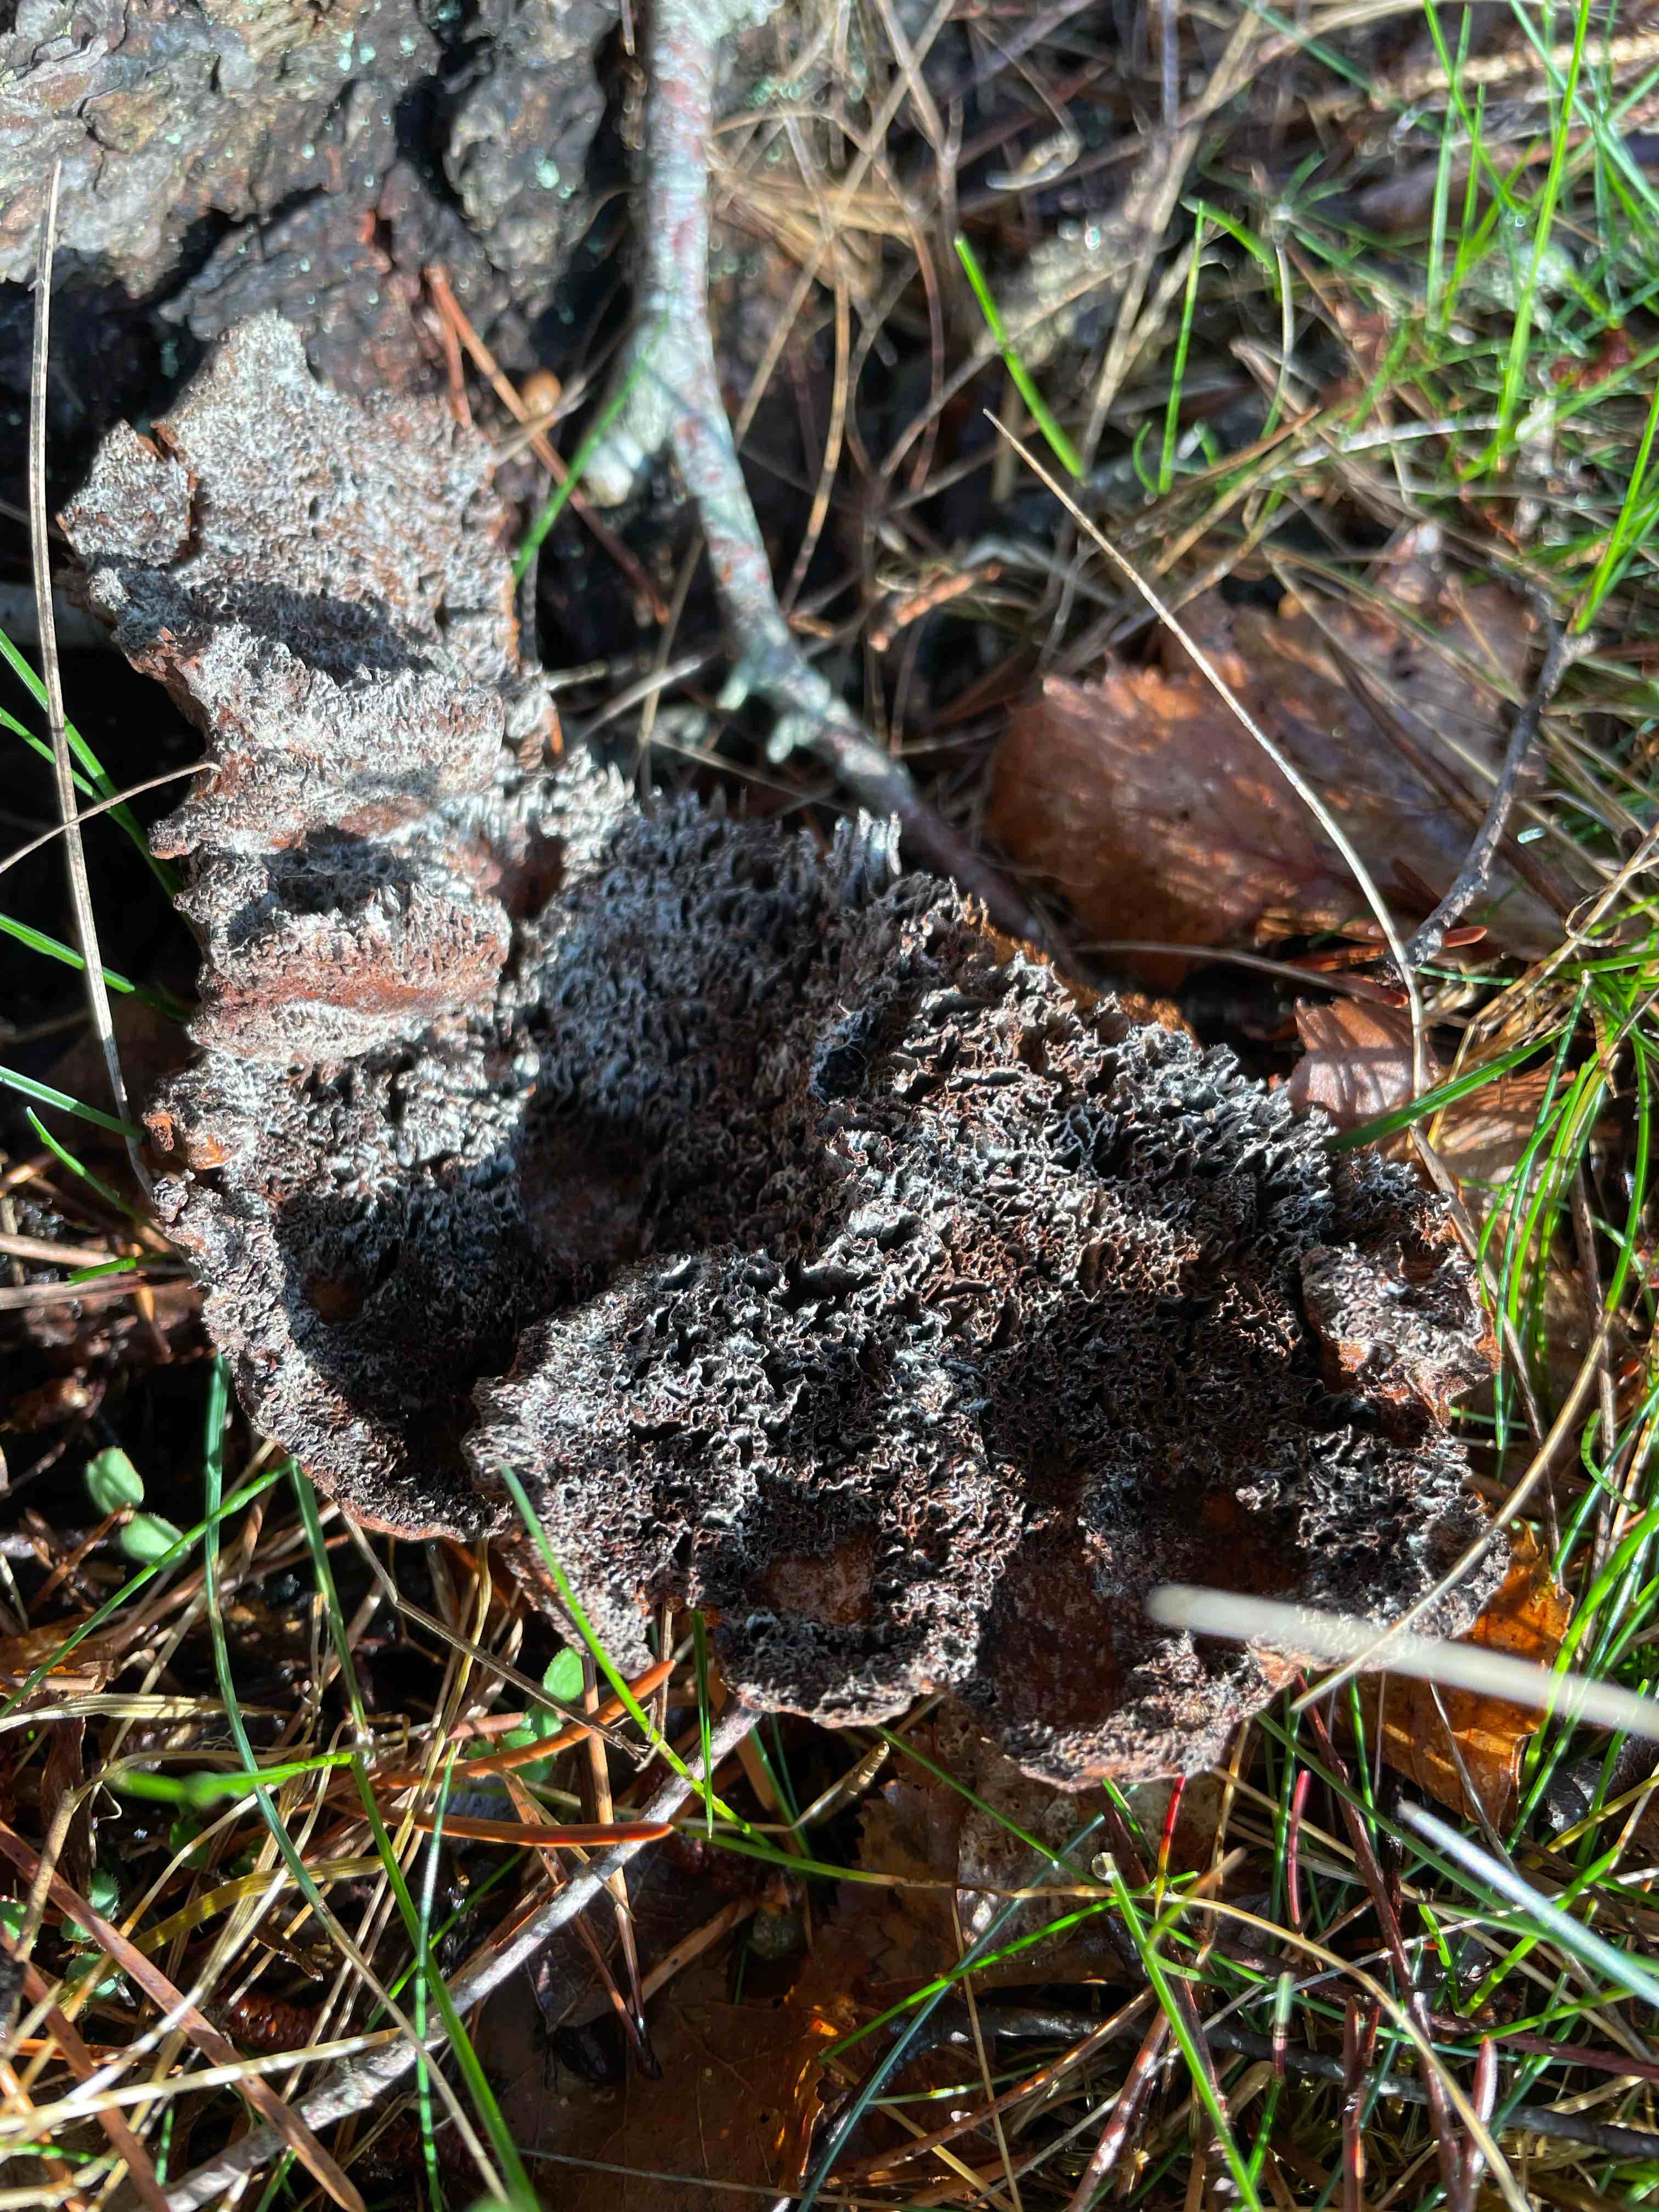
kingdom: Fungi
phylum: Basidiomycota
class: Agaricomycetes
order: Polyporales
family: Ischnodermataceae
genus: Ischnoderma
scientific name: Ischnoderma benzoinum
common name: gran-tjæreporesvamp
